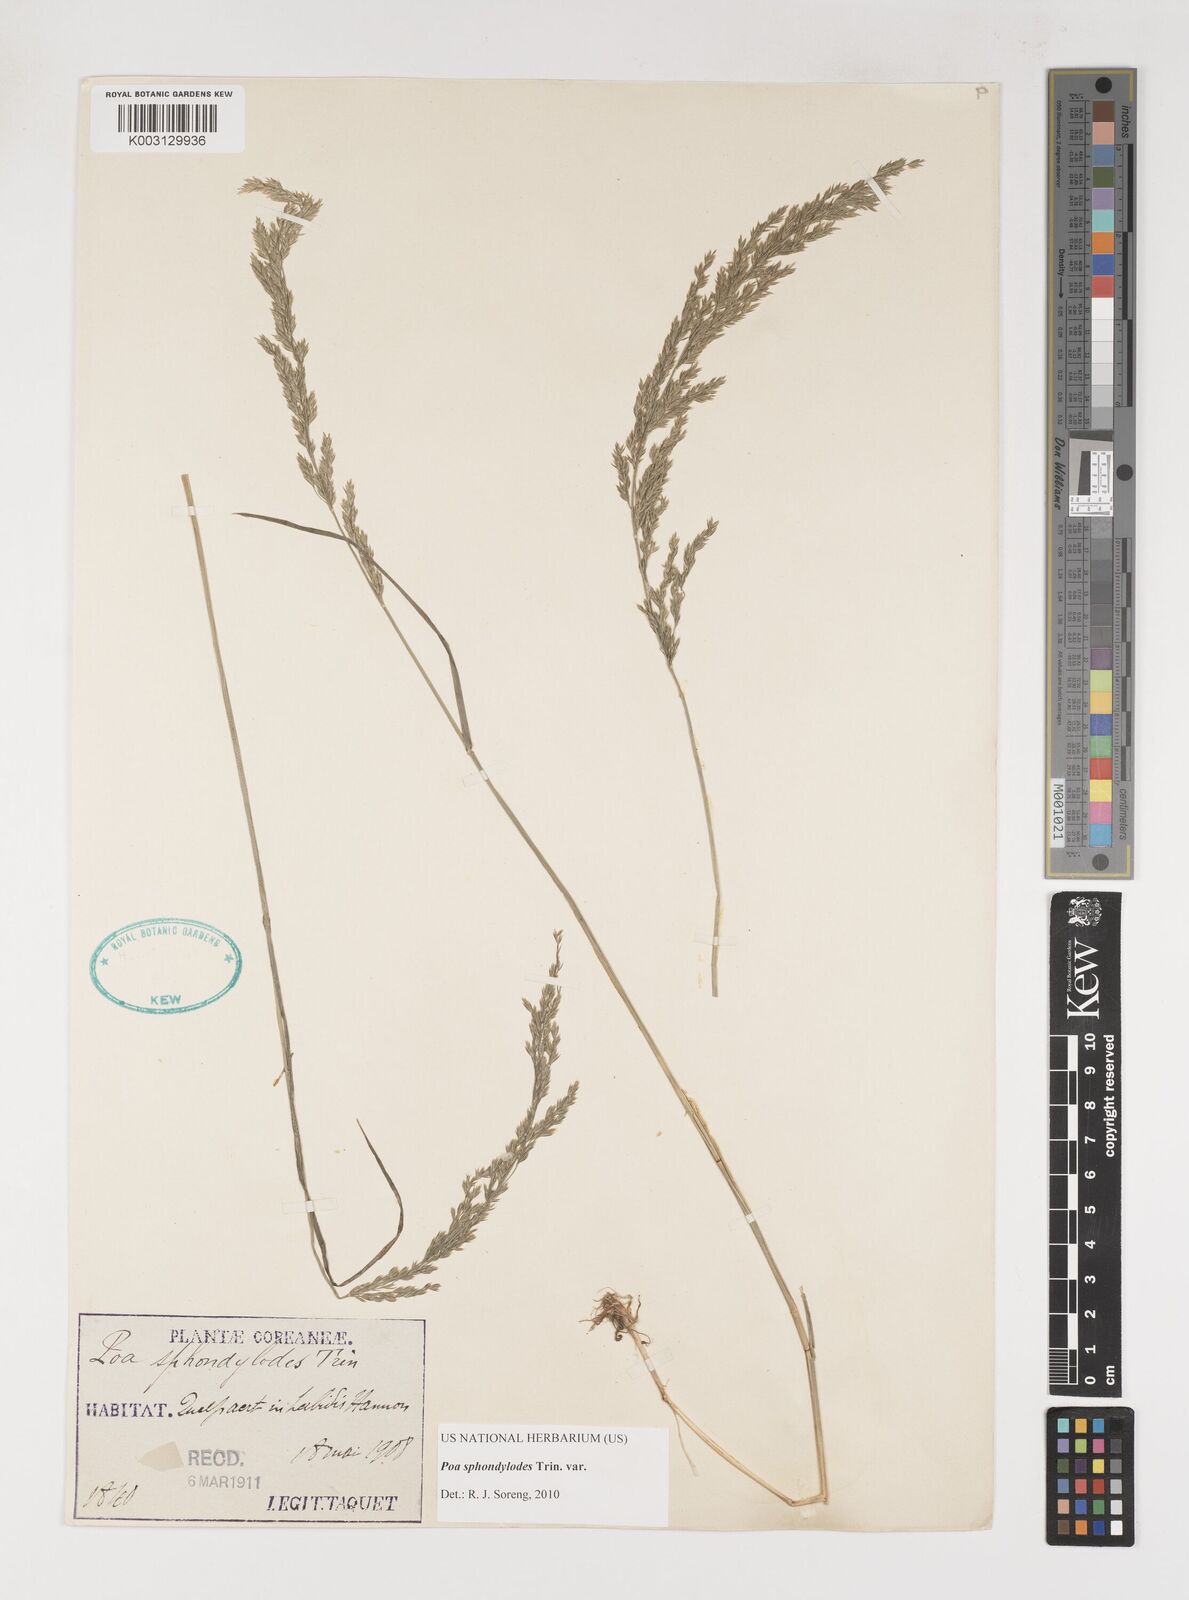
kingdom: Plantae
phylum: Tracheophyta
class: Liliopsida
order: Poales
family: Poaceae
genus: Poa
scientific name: Poa sphondylodes
